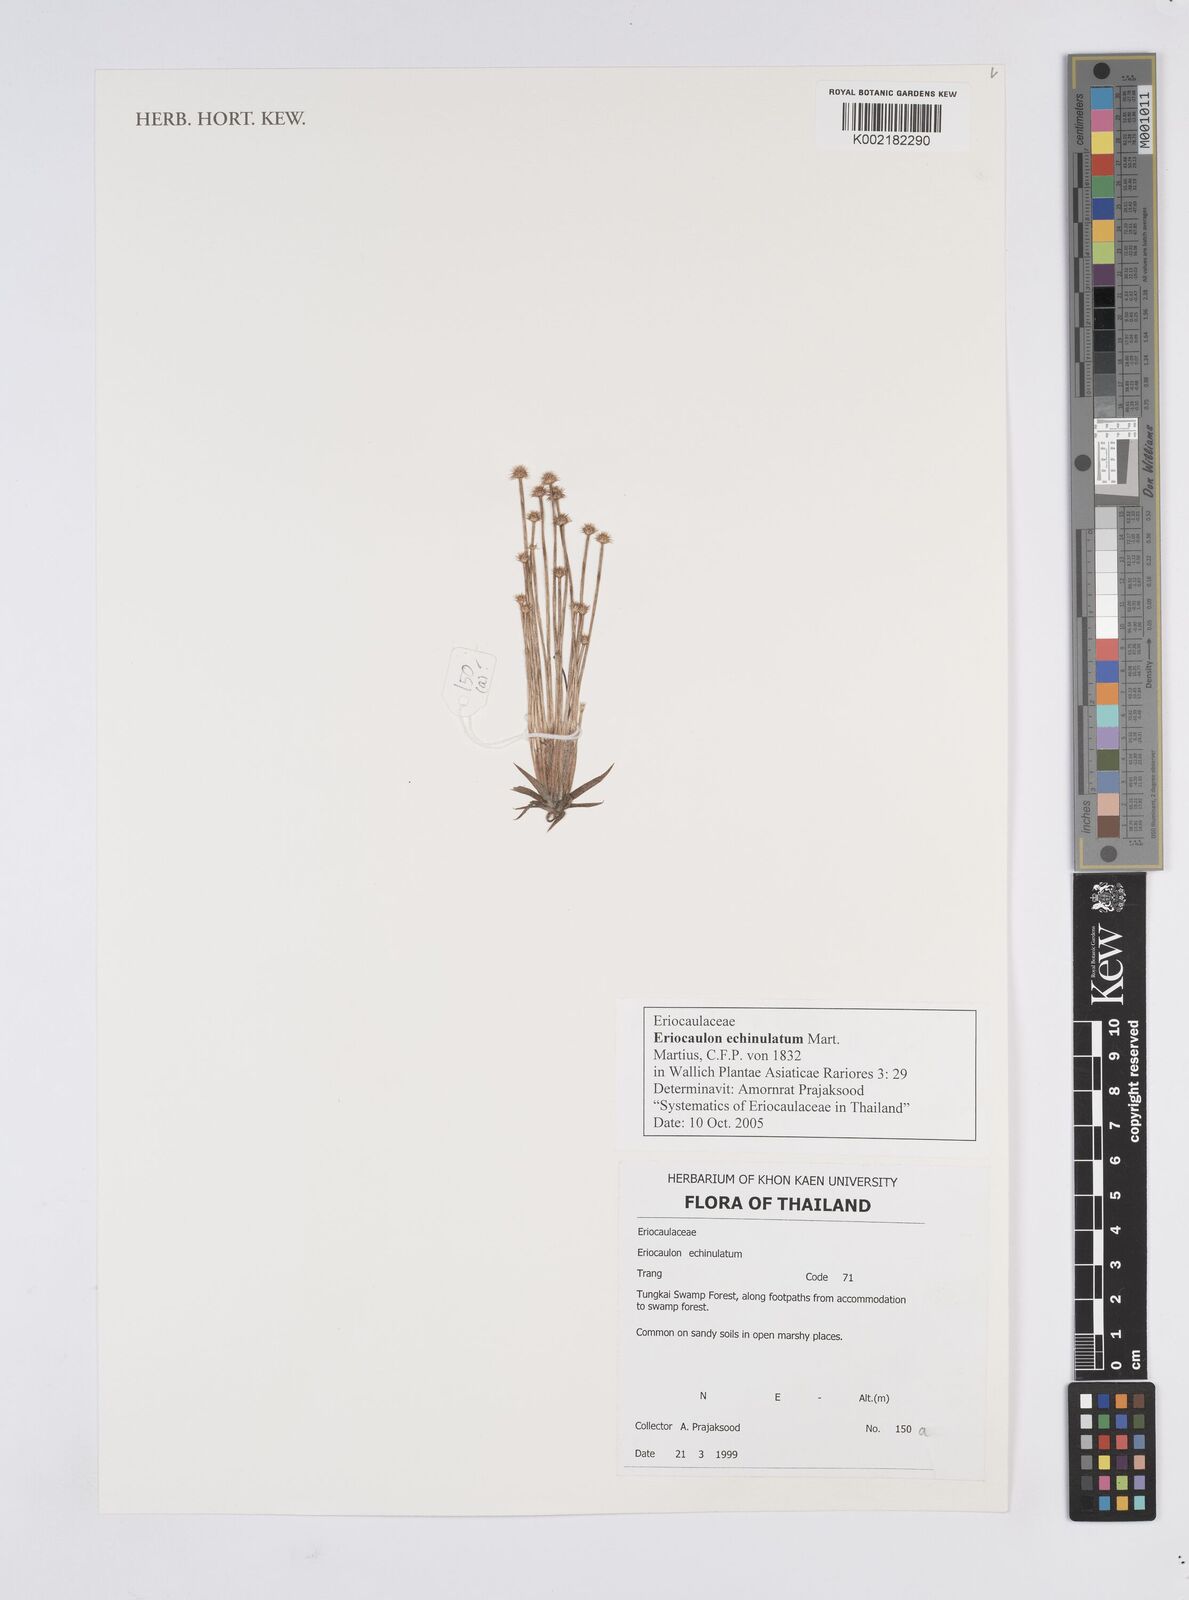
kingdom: Plantae
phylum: Tracheophyta
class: Liliopsida
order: Poales
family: Eriocaulaceae
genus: Eriocaulon
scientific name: Eriocaulon echinulatum
